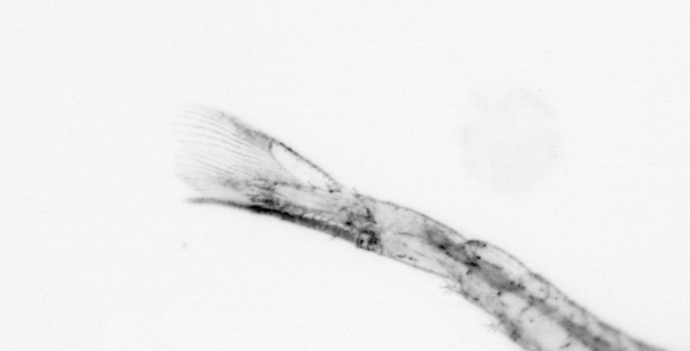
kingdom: Animalia
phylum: Arthropoda
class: Malacostraca
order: Decapoda
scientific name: Decapoda
